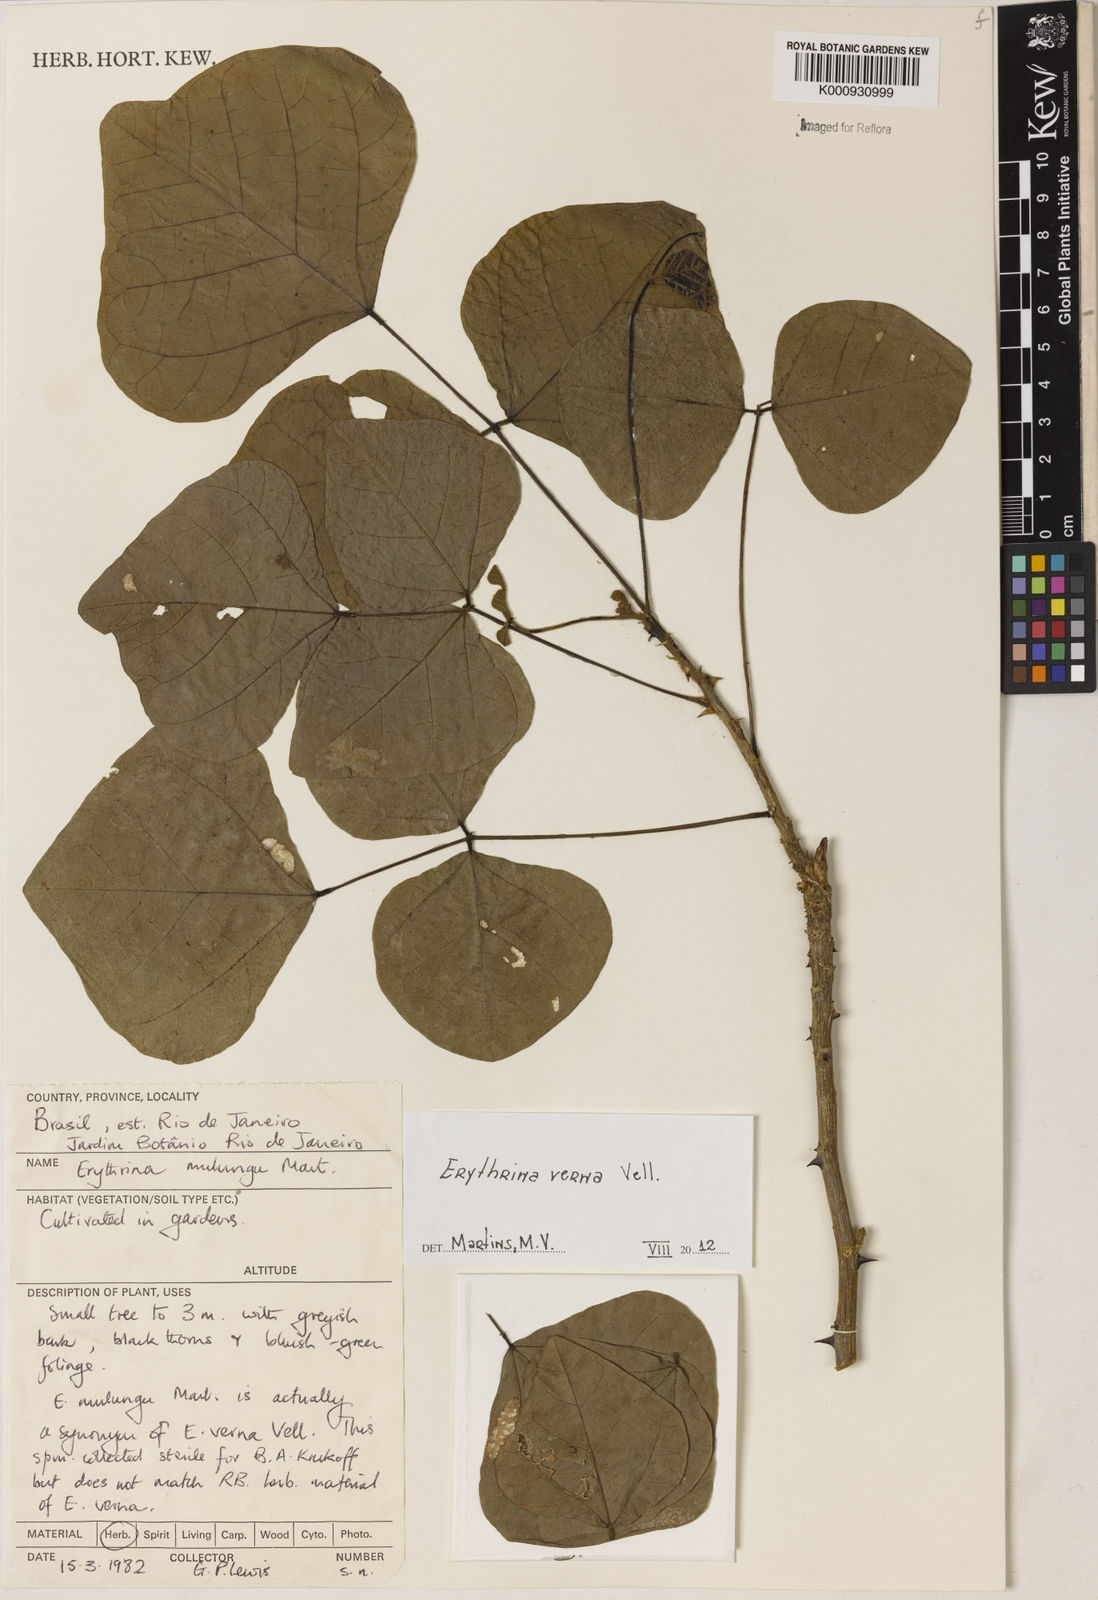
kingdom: Plantae
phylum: Tracheophyta
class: Magnoliopsida
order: Fabales
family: Fabaceae
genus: Erythrina
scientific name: Erythrina verna
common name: Mulungú
